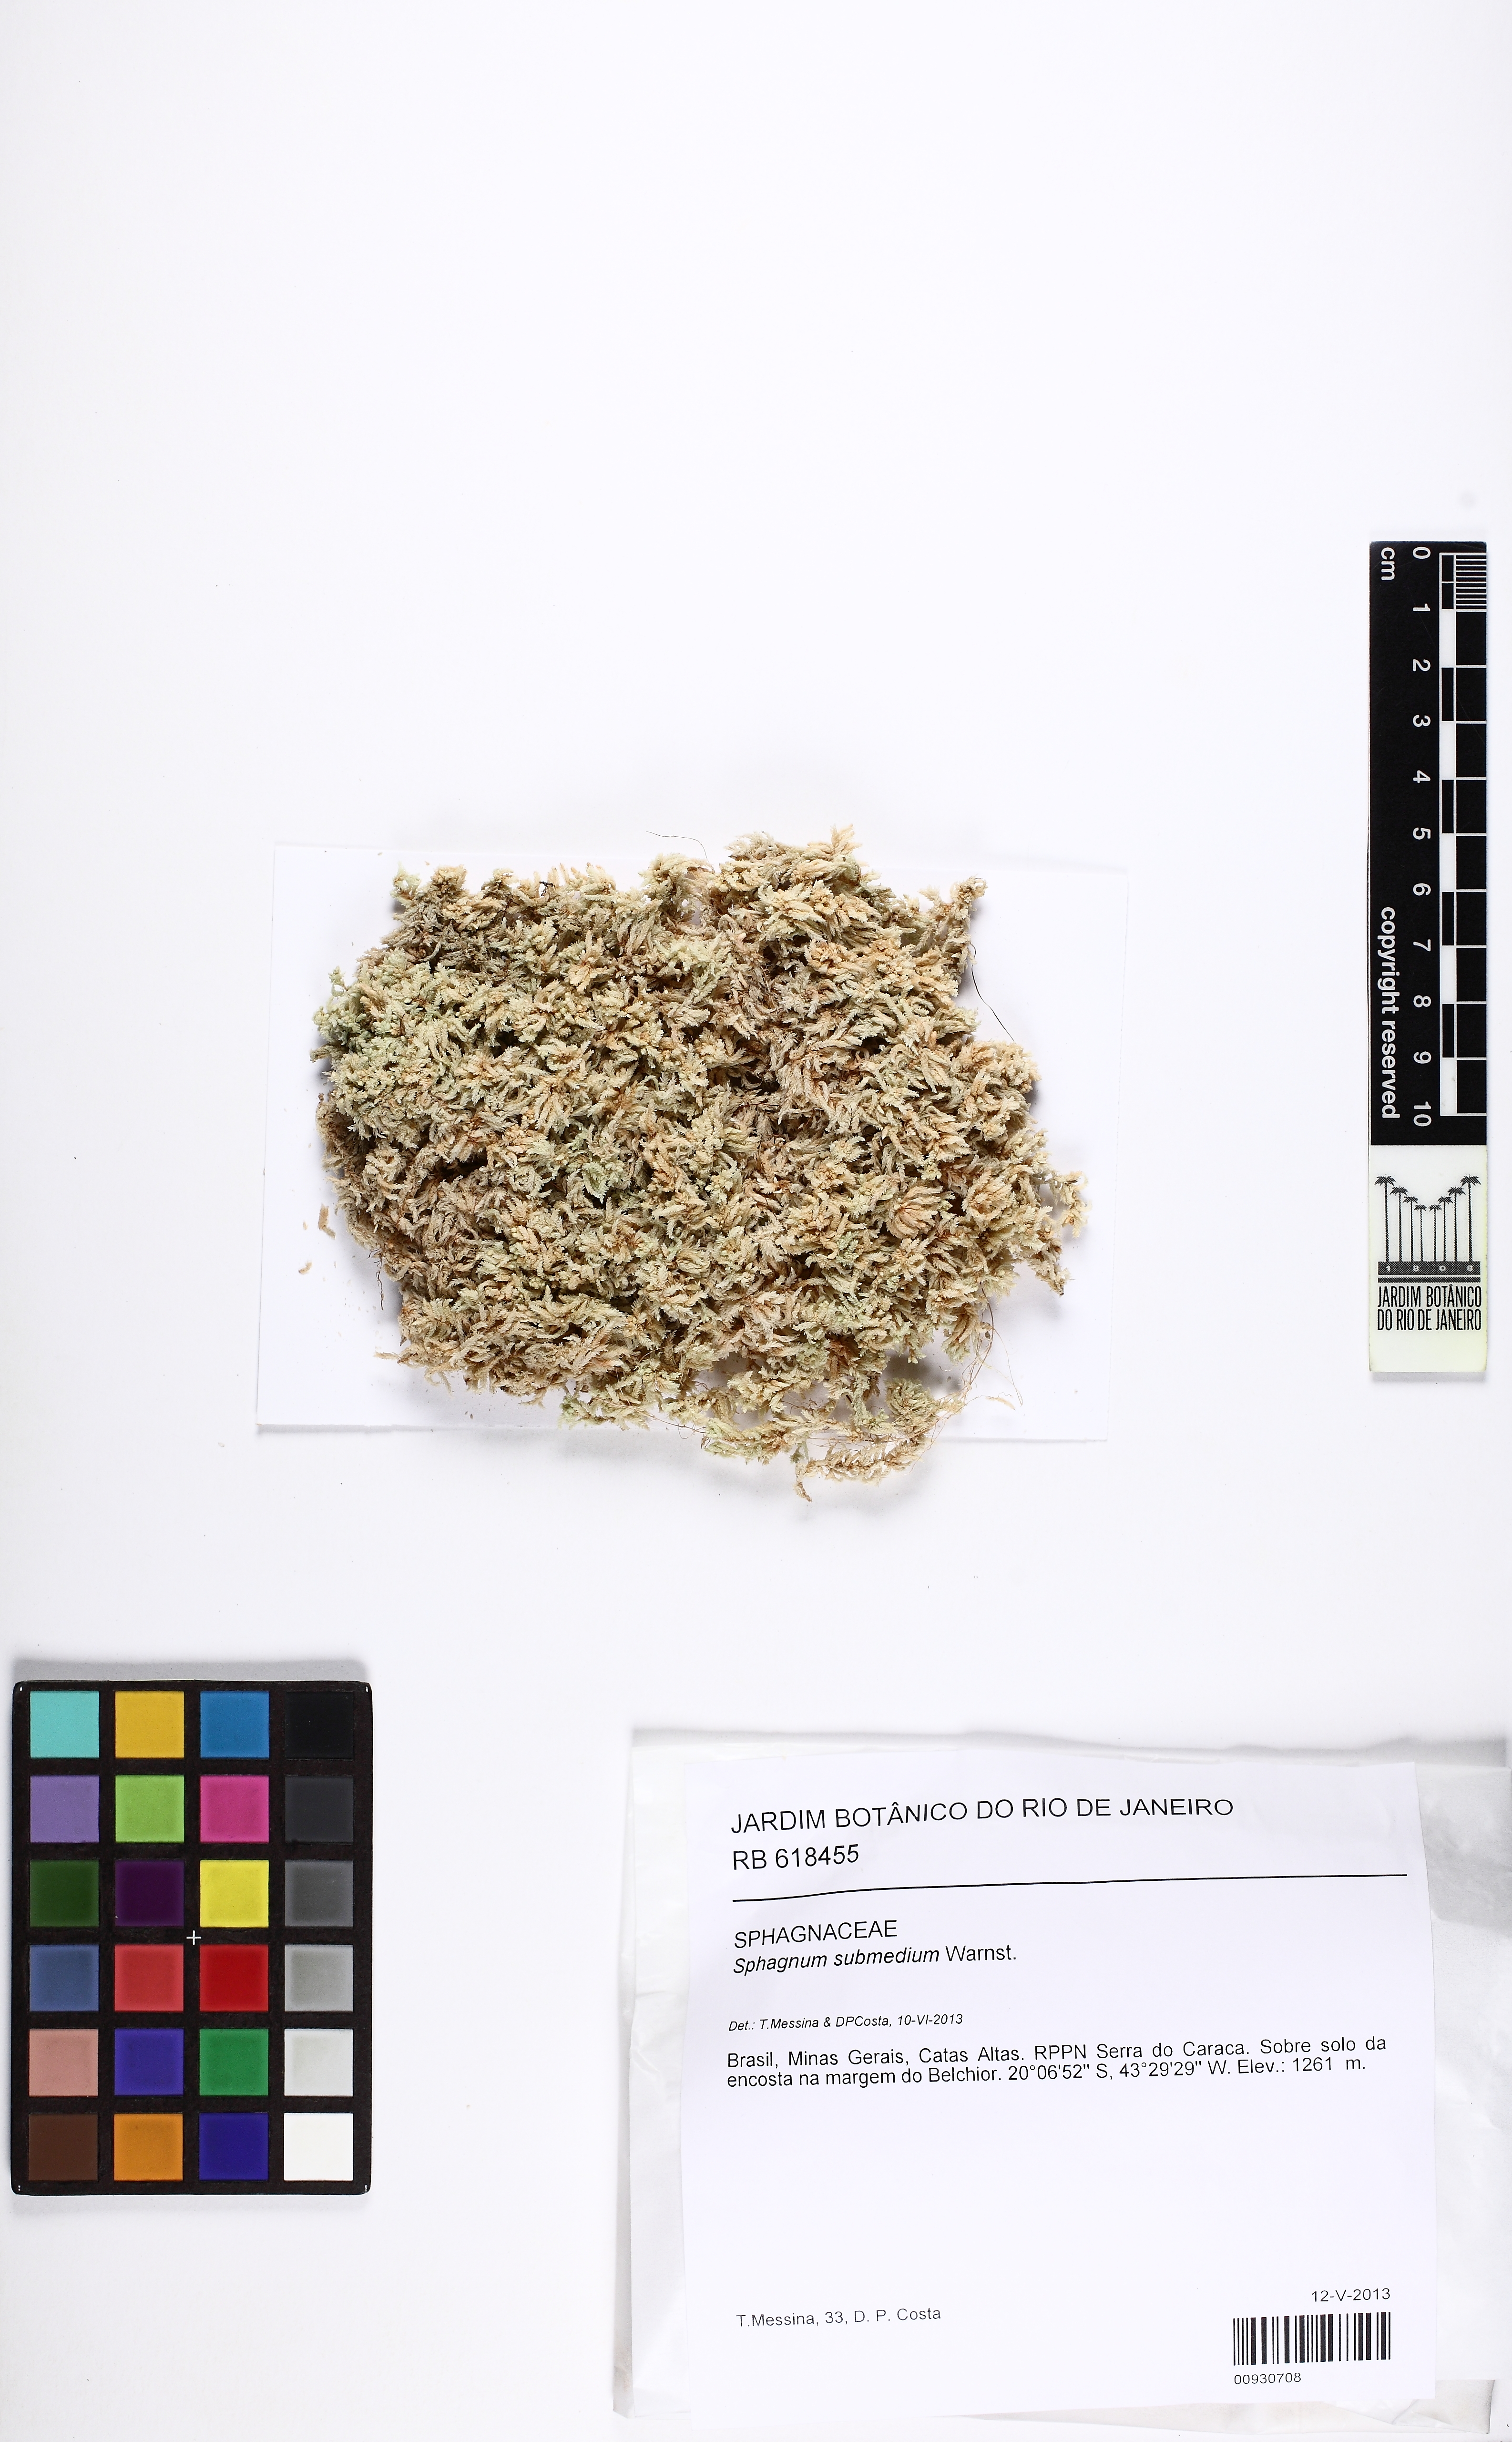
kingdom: Plantae
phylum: Bryophyta
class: Sphagnopsida
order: Sphagnales
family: Sphagnaceae
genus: Sphagnum
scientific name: Sphagnum submedium
